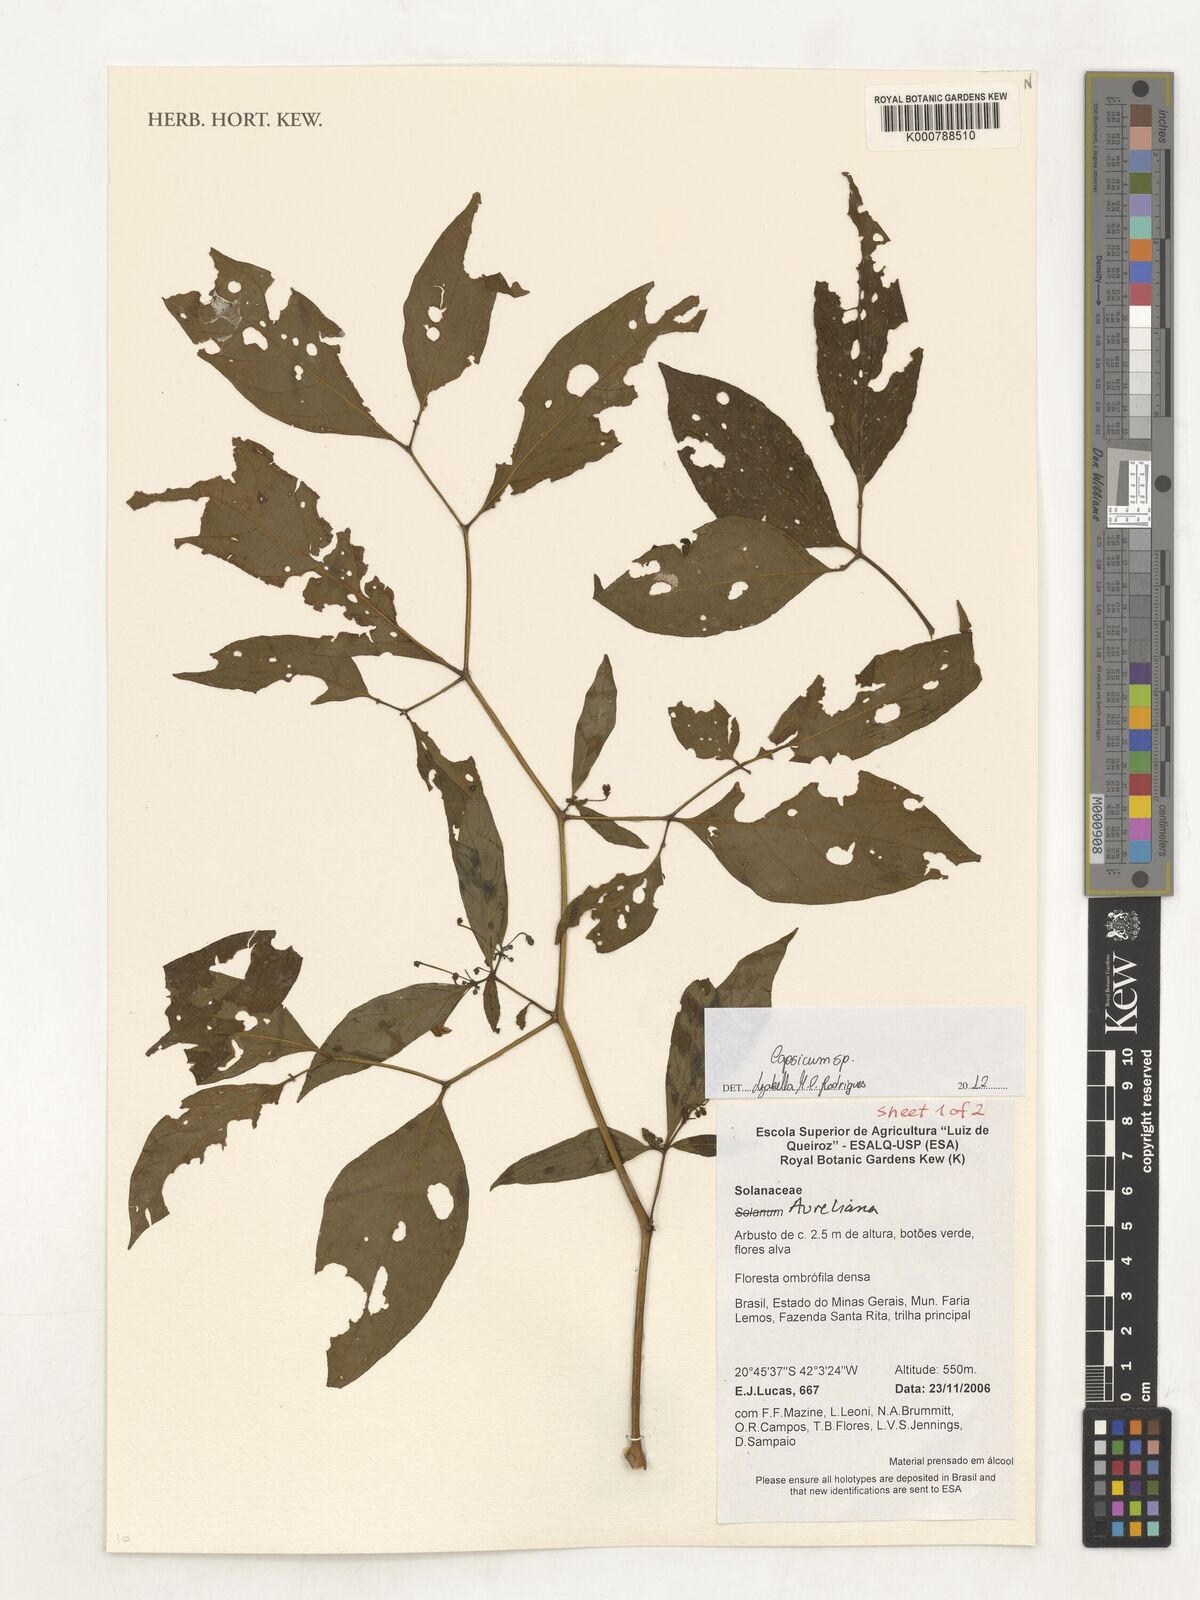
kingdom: Plantae
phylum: Tracheophyta
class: Magnoliopsida
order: Solanales
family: Solanaceae
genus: Capsicum
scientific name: Capsicum
